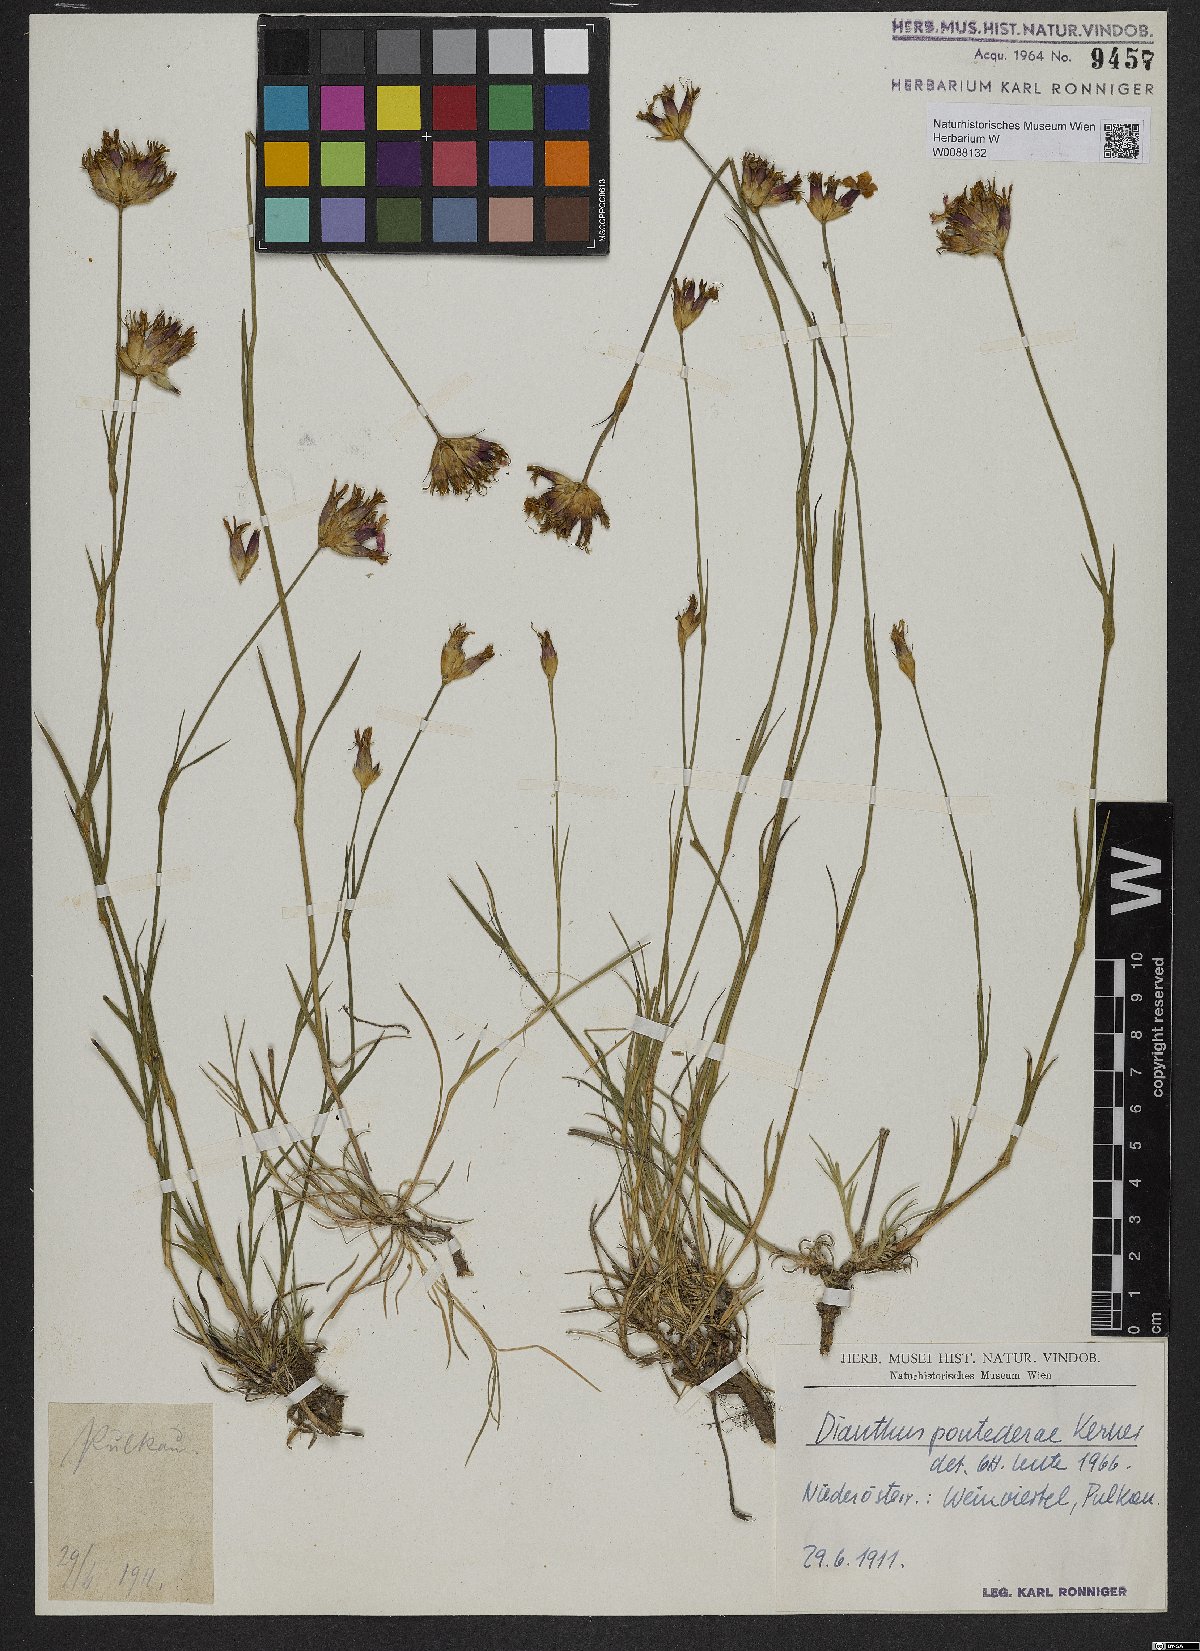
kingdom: Plantae
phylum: Tracheophyta
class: Magnoliopsida
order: Caryophyllales
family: Caryophyllaceae
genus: Dianthus
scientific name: Dianthus pontederae
